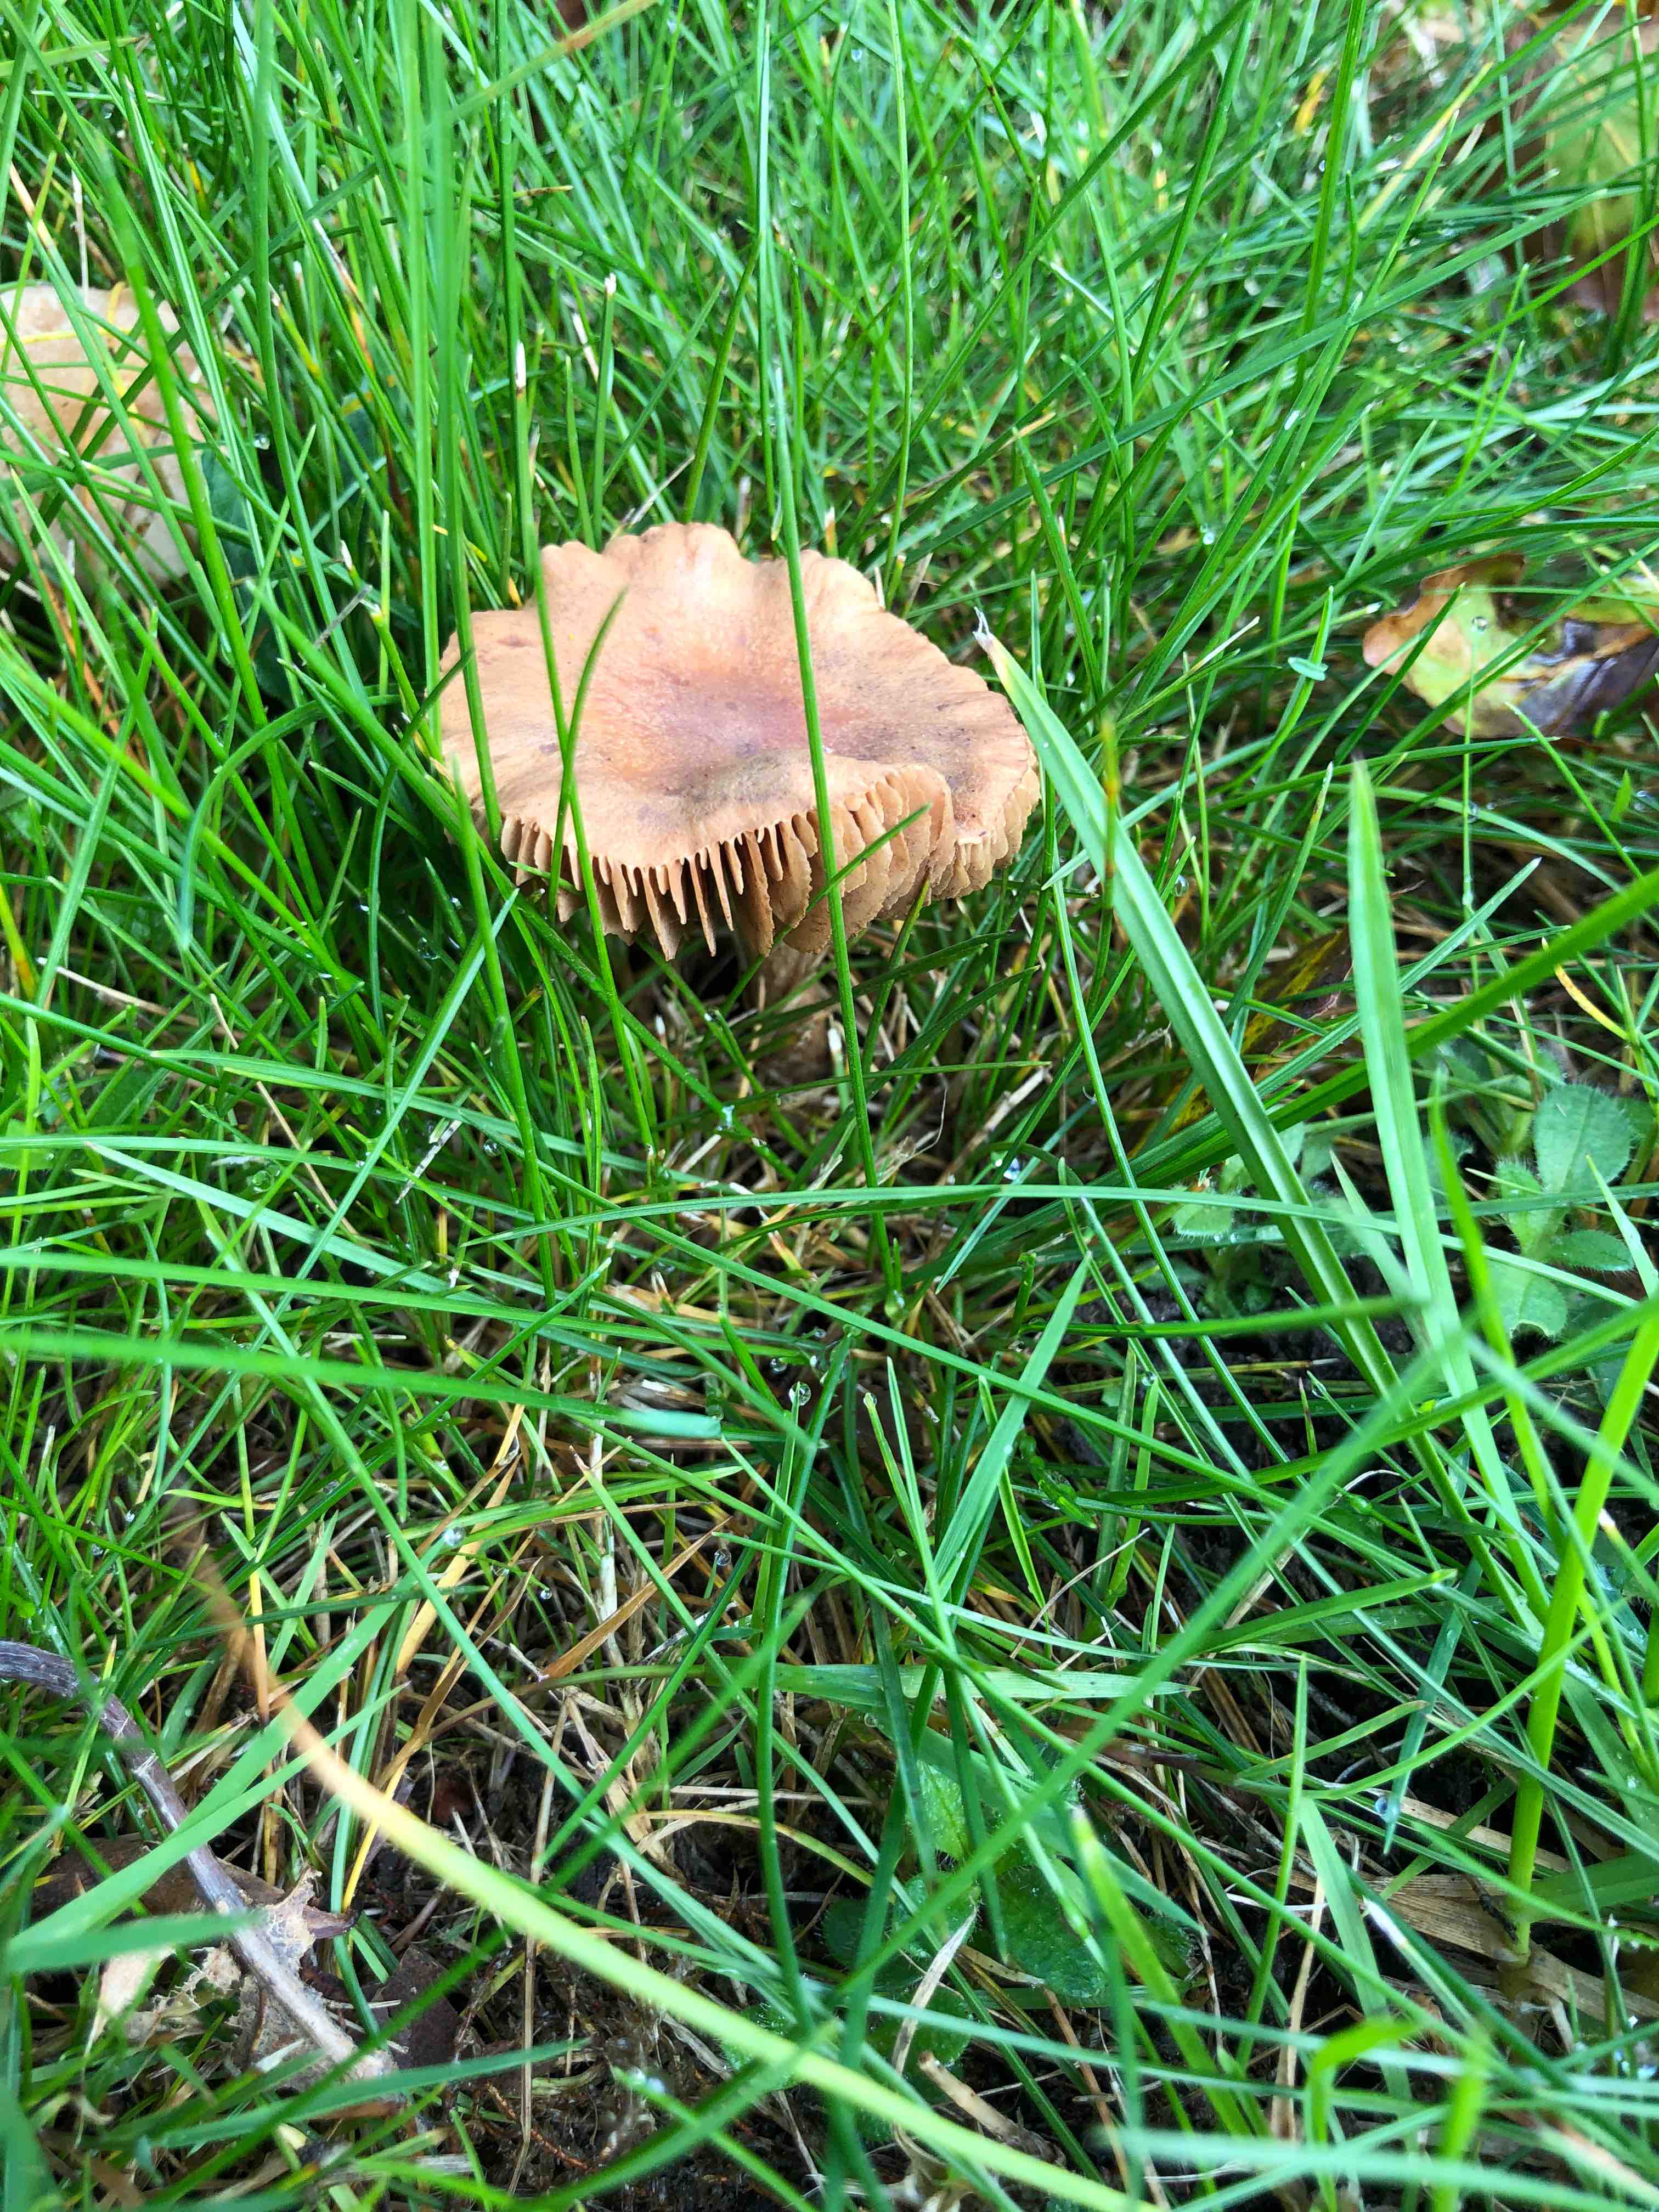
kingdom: Fungi
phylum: Basidiomycota
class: Agaricomycetes
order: Agaricales
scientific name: Agaricales
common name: champignonordenen
